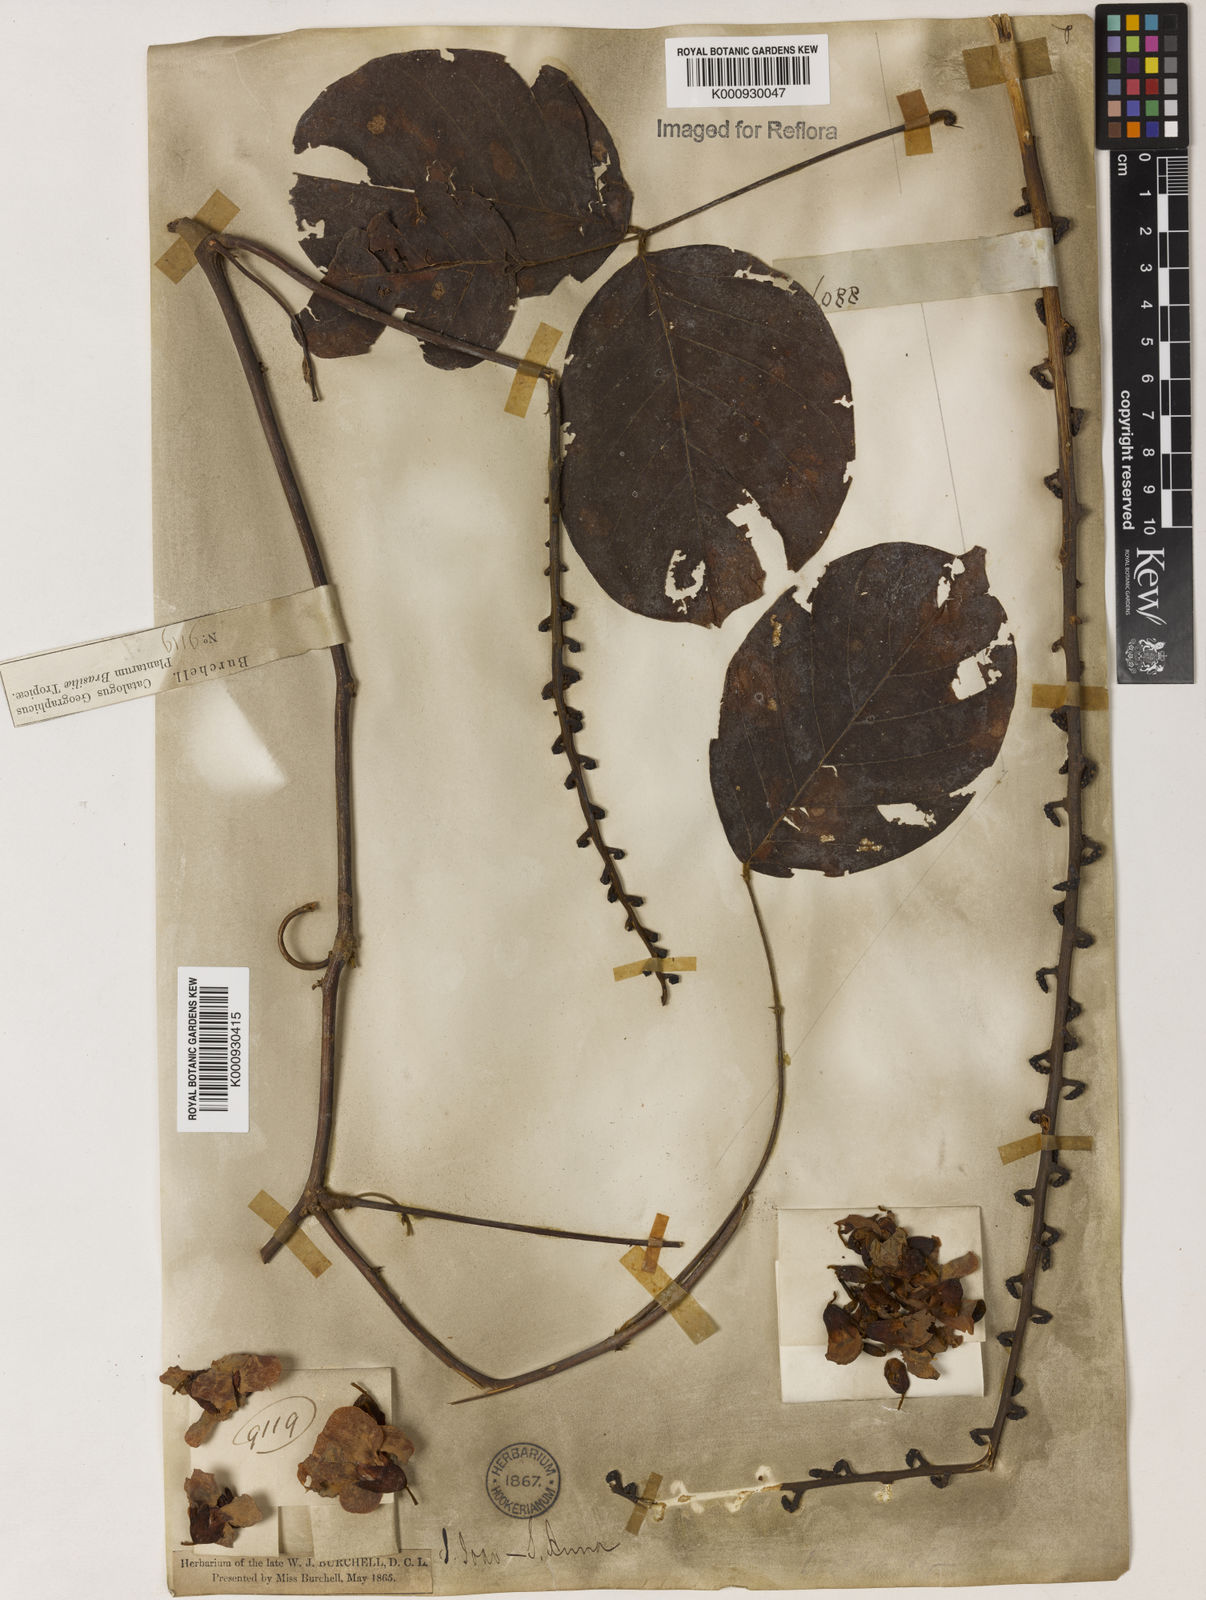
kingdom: Plantae
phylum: Tracheophyta
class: Magnoliopsida
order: Fabales
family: Fabaceae
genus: Macropsychanthus
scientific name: Macropsychanthus megacarpus
